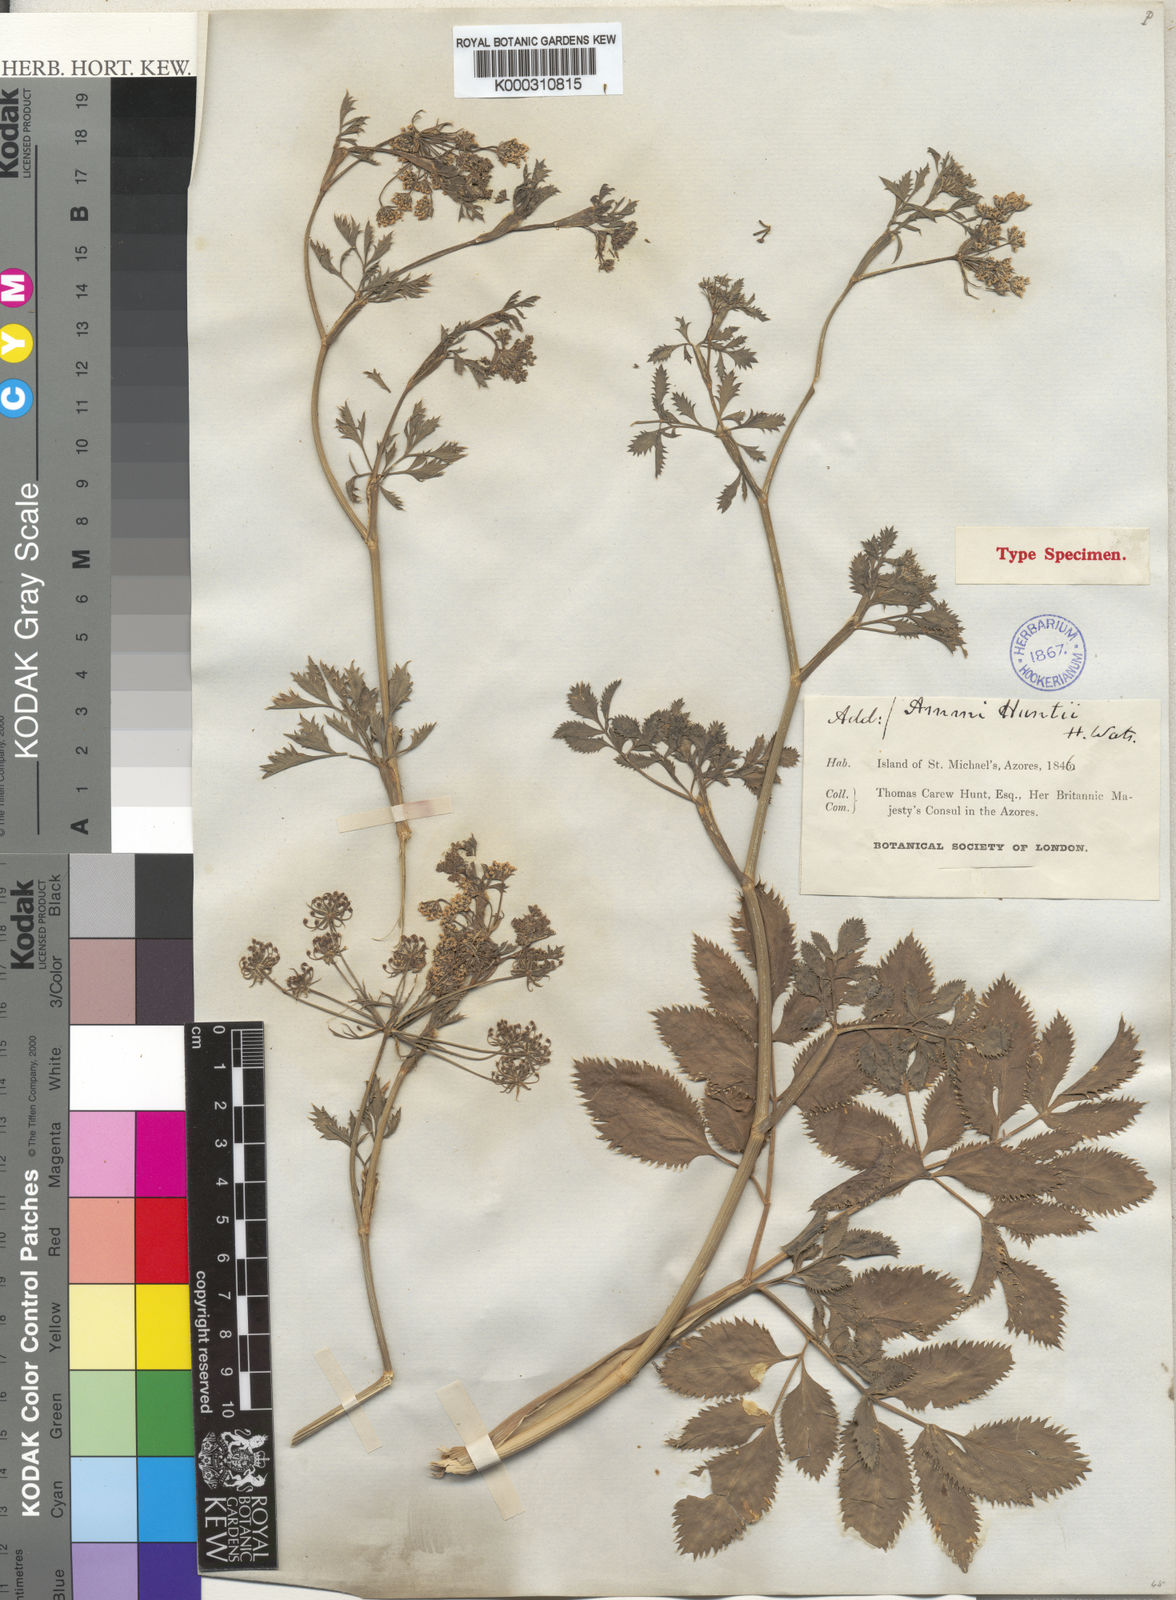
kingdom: Plantae
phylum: Tracheophyta
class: Magnoliopsida
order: Apiales
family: Apiaceae
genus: Ammi
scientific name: Ammi trifoliatum
